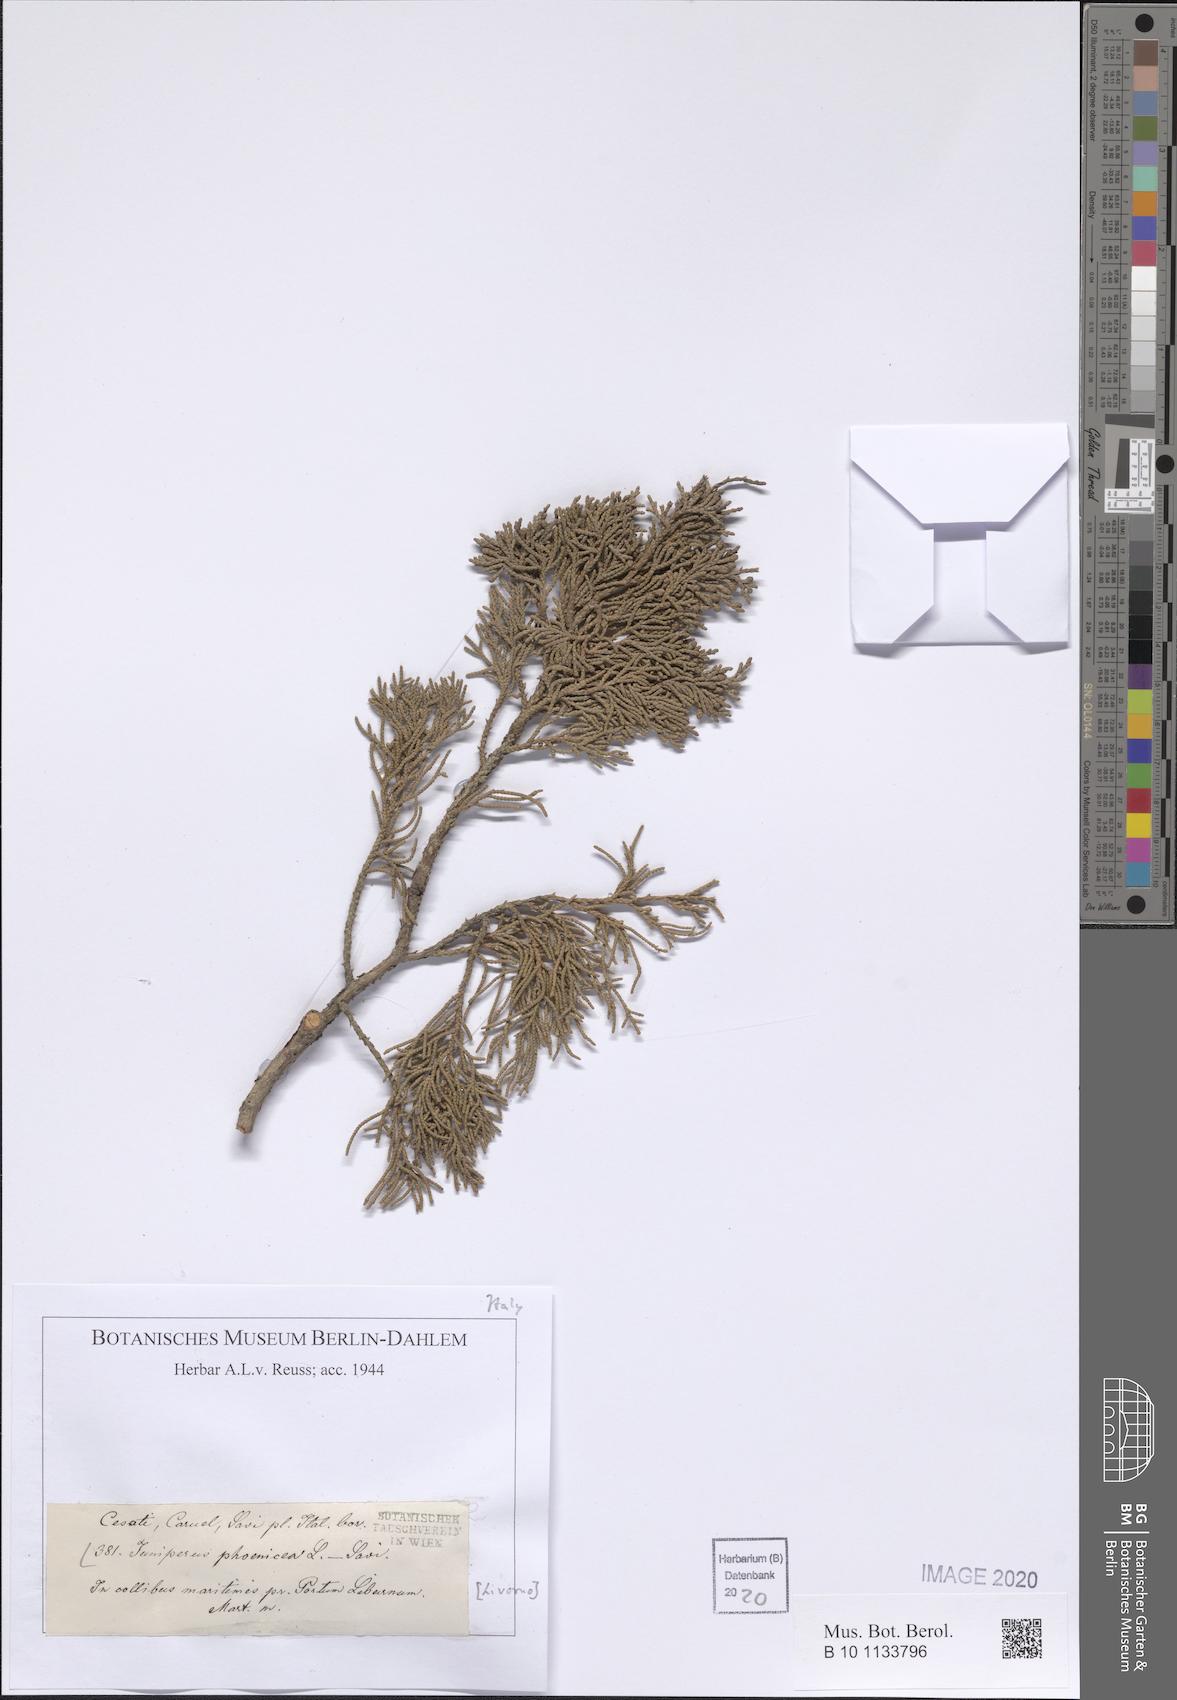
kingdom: Plantae
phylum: Tracheophyta
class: Pinopsida
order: Pinales
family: Cupressaceae
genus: Juniperus
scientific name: Juniperus phoenicea
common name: Phoenician juniper
